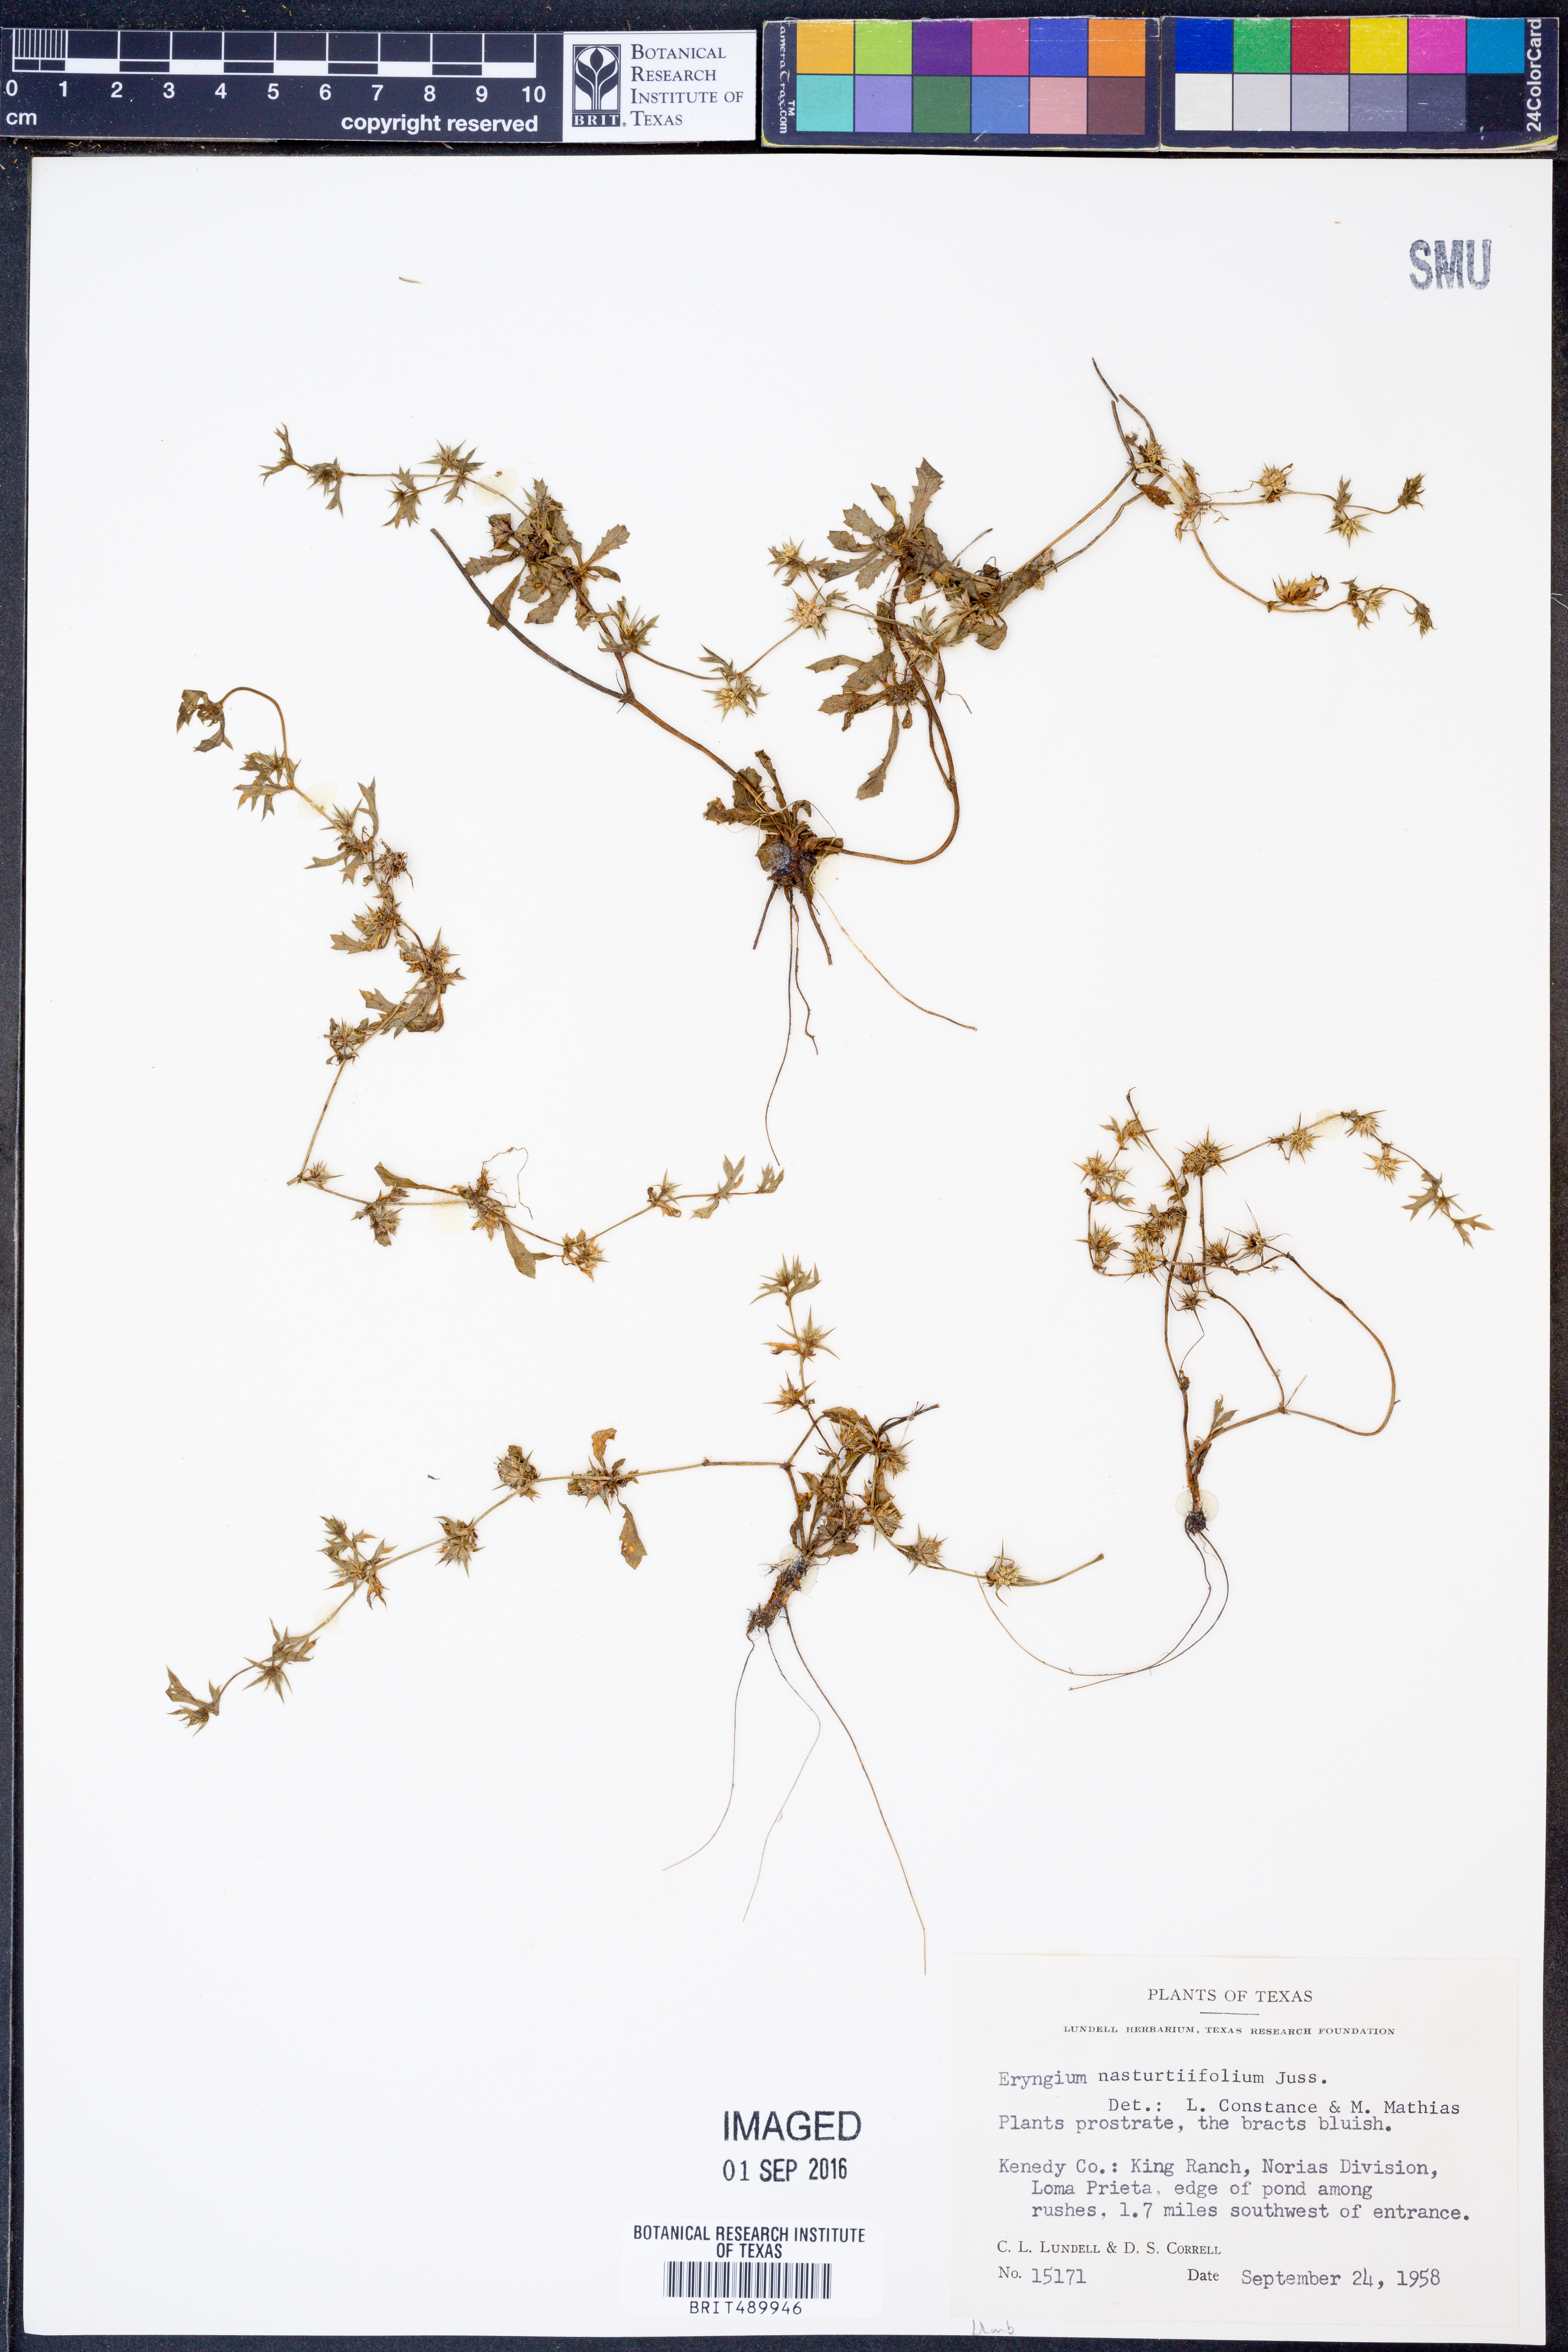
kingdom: Plantae
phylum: Tracheophyta
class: Magnoliopsida
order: Apiales
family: Apiaceae
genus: Eryngium
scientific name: Eryngium nasturtiifolium
